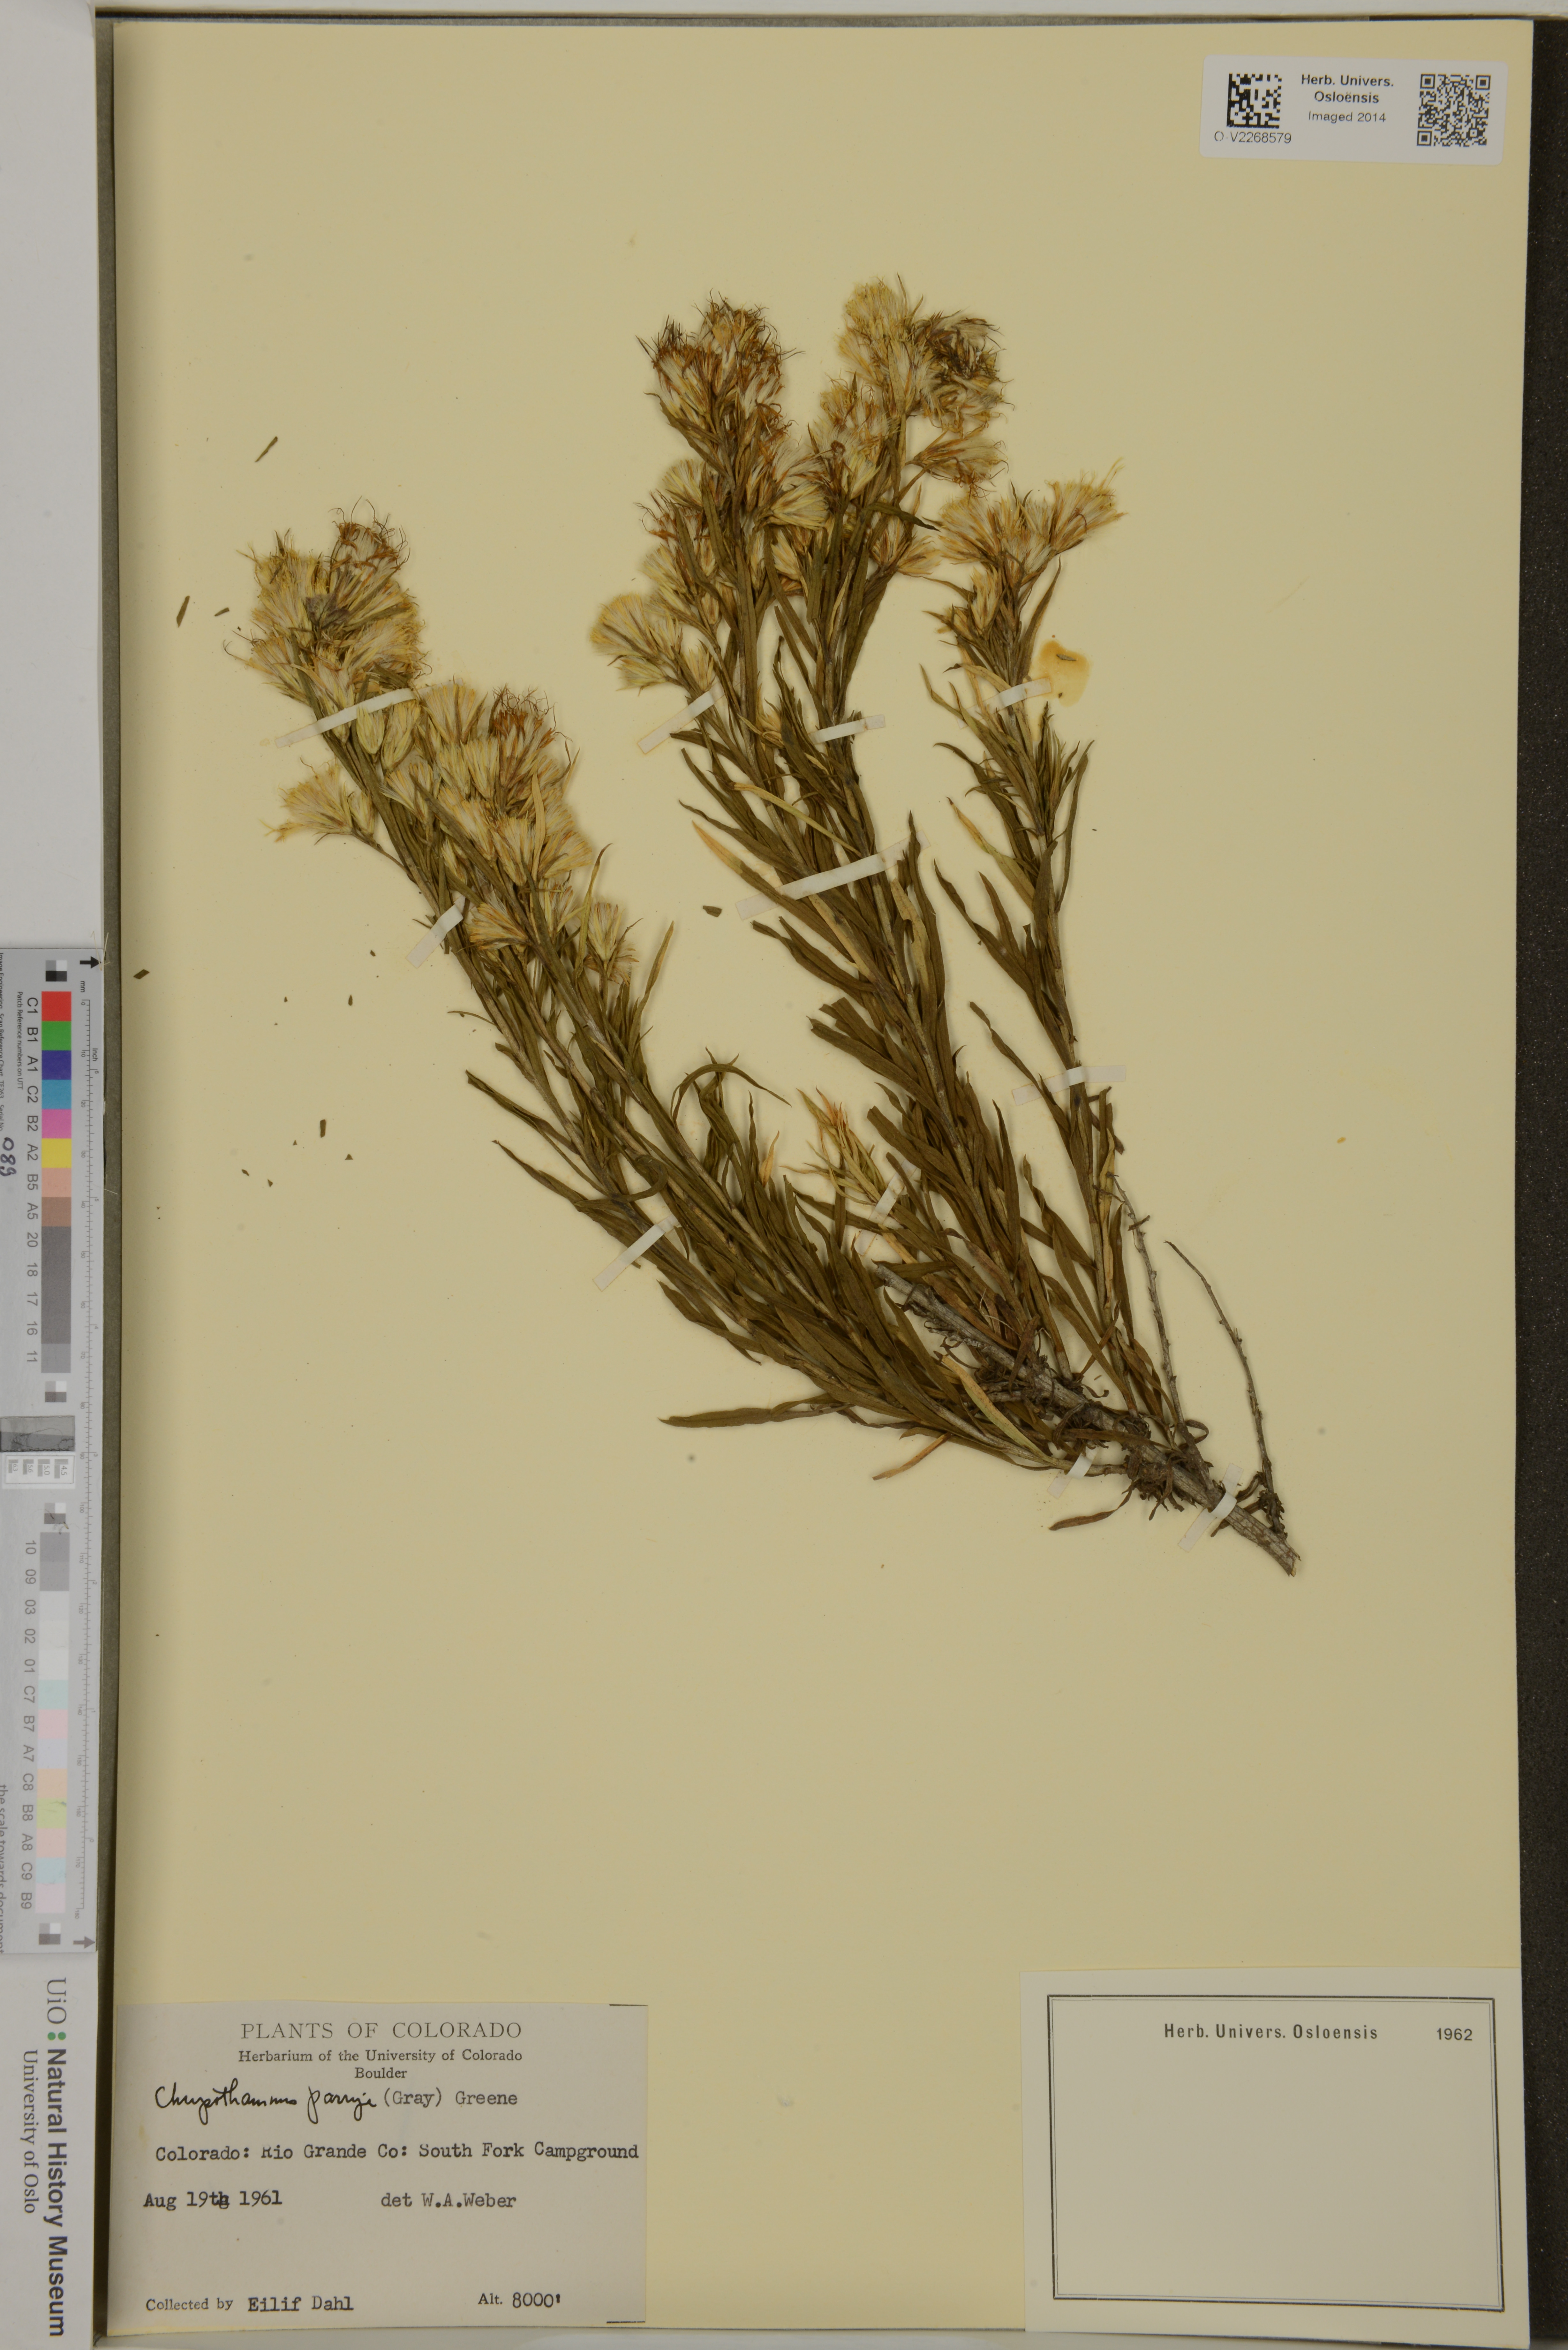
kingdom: Plantae
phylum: Tracheophyta
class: Magnoliopsida
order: Asterales
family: Asteraceae
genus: Ericameria
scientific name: Ericameria parryi
